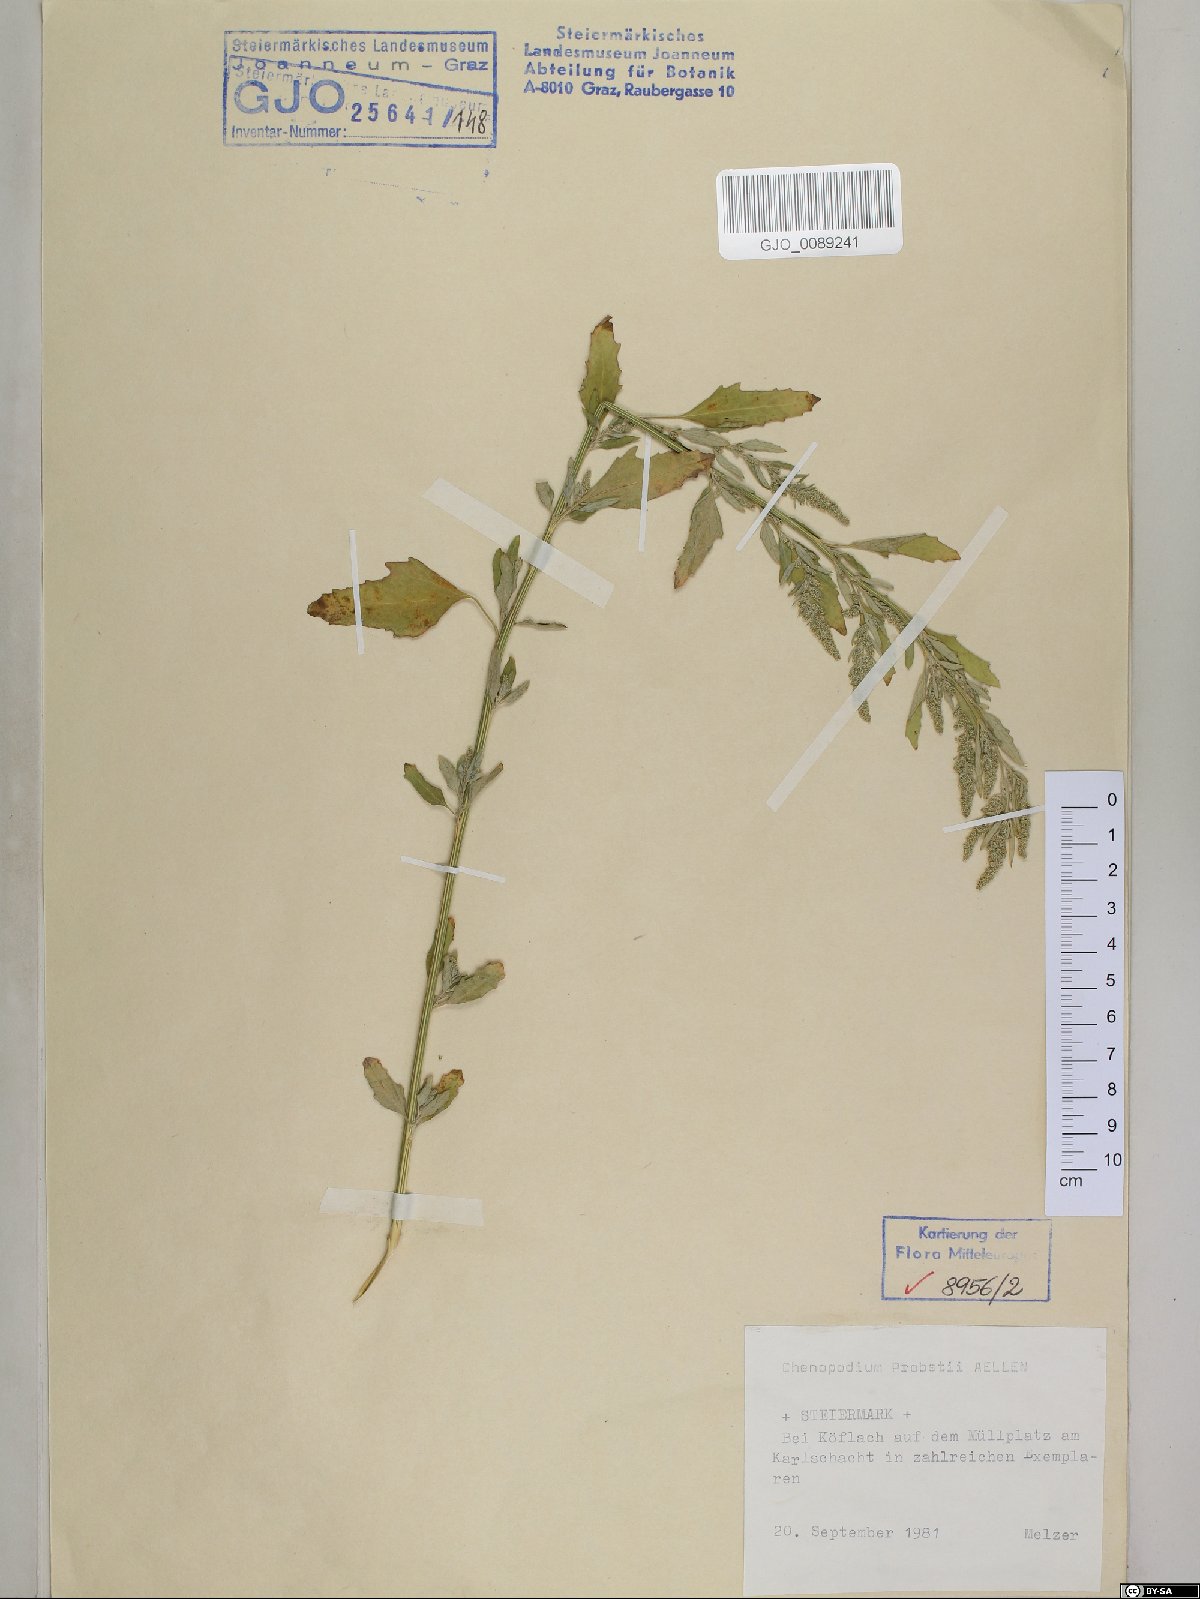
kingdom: Plantae
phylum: Tracheophyta
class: Magnoliopsida
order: Caryophyllales
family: Amaranthaceae
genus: Chenopodium
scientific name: Chenopodium probstii
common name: Probst's goosefoot
